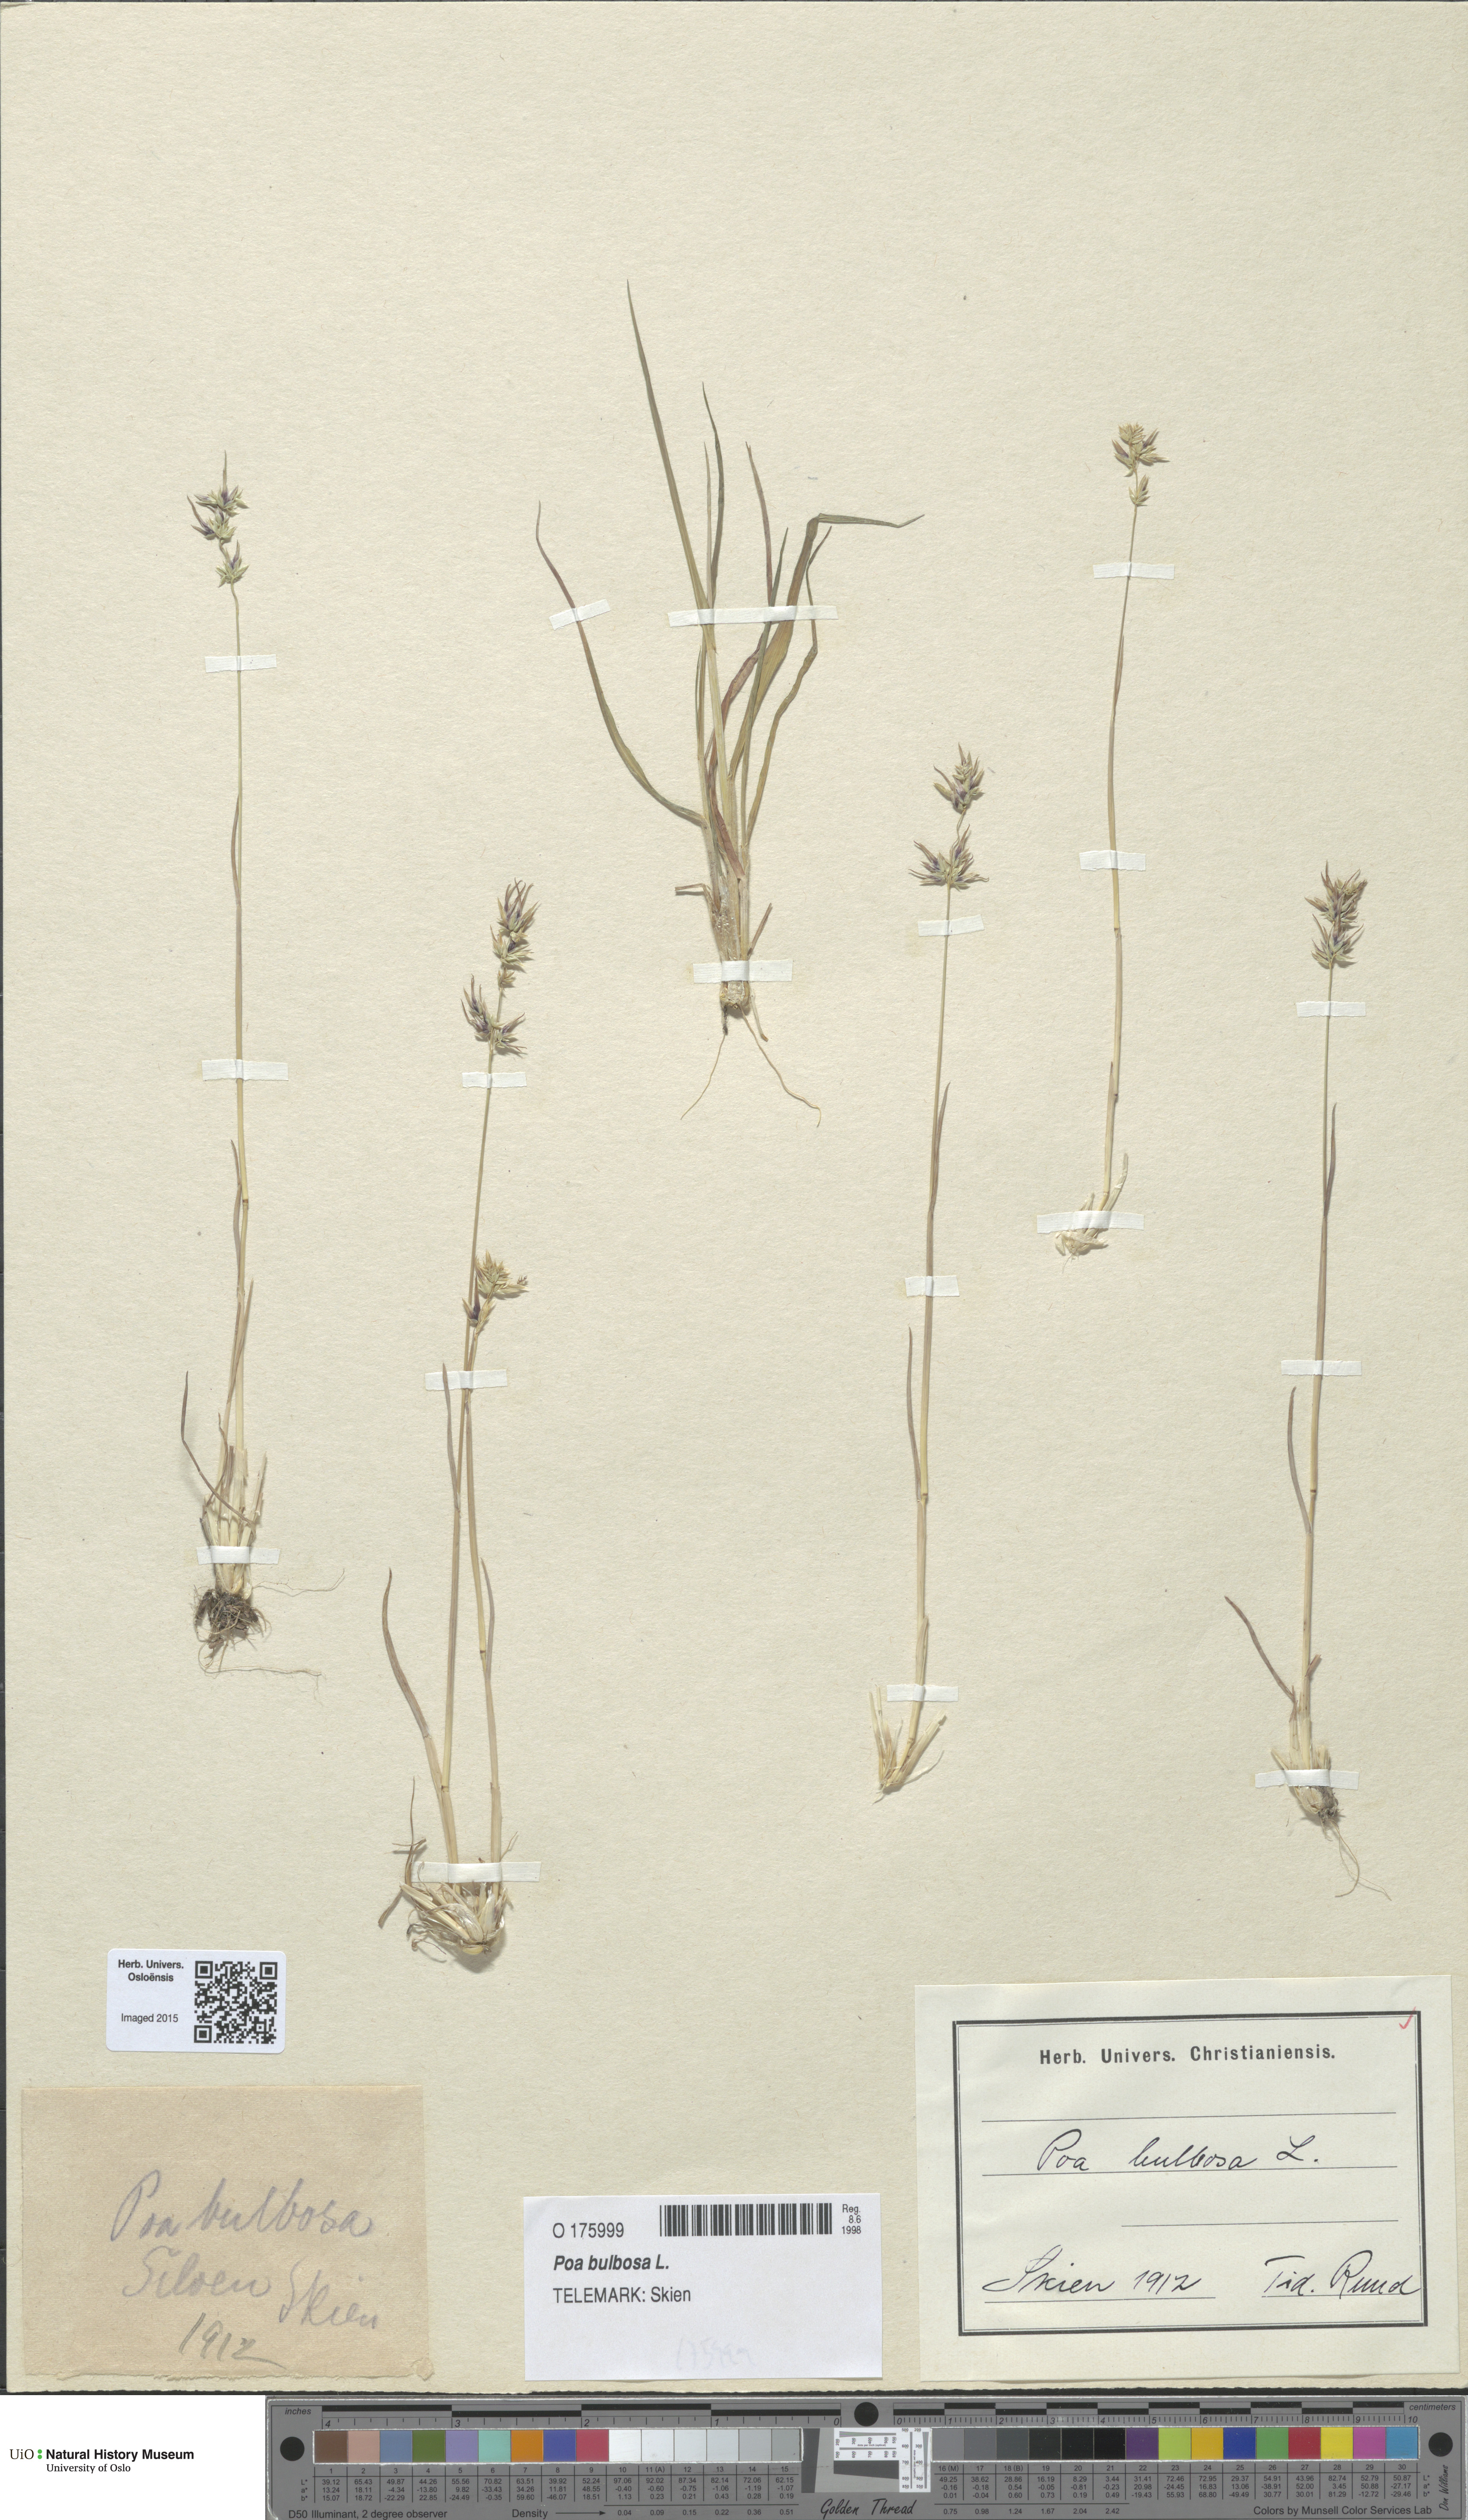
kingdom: Plantae
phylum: Tracheophyta
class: Liliopsida
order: Poales
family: Poaceae
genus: Poa
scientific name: Poa bulbosa
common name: Bulbous bluegrass
